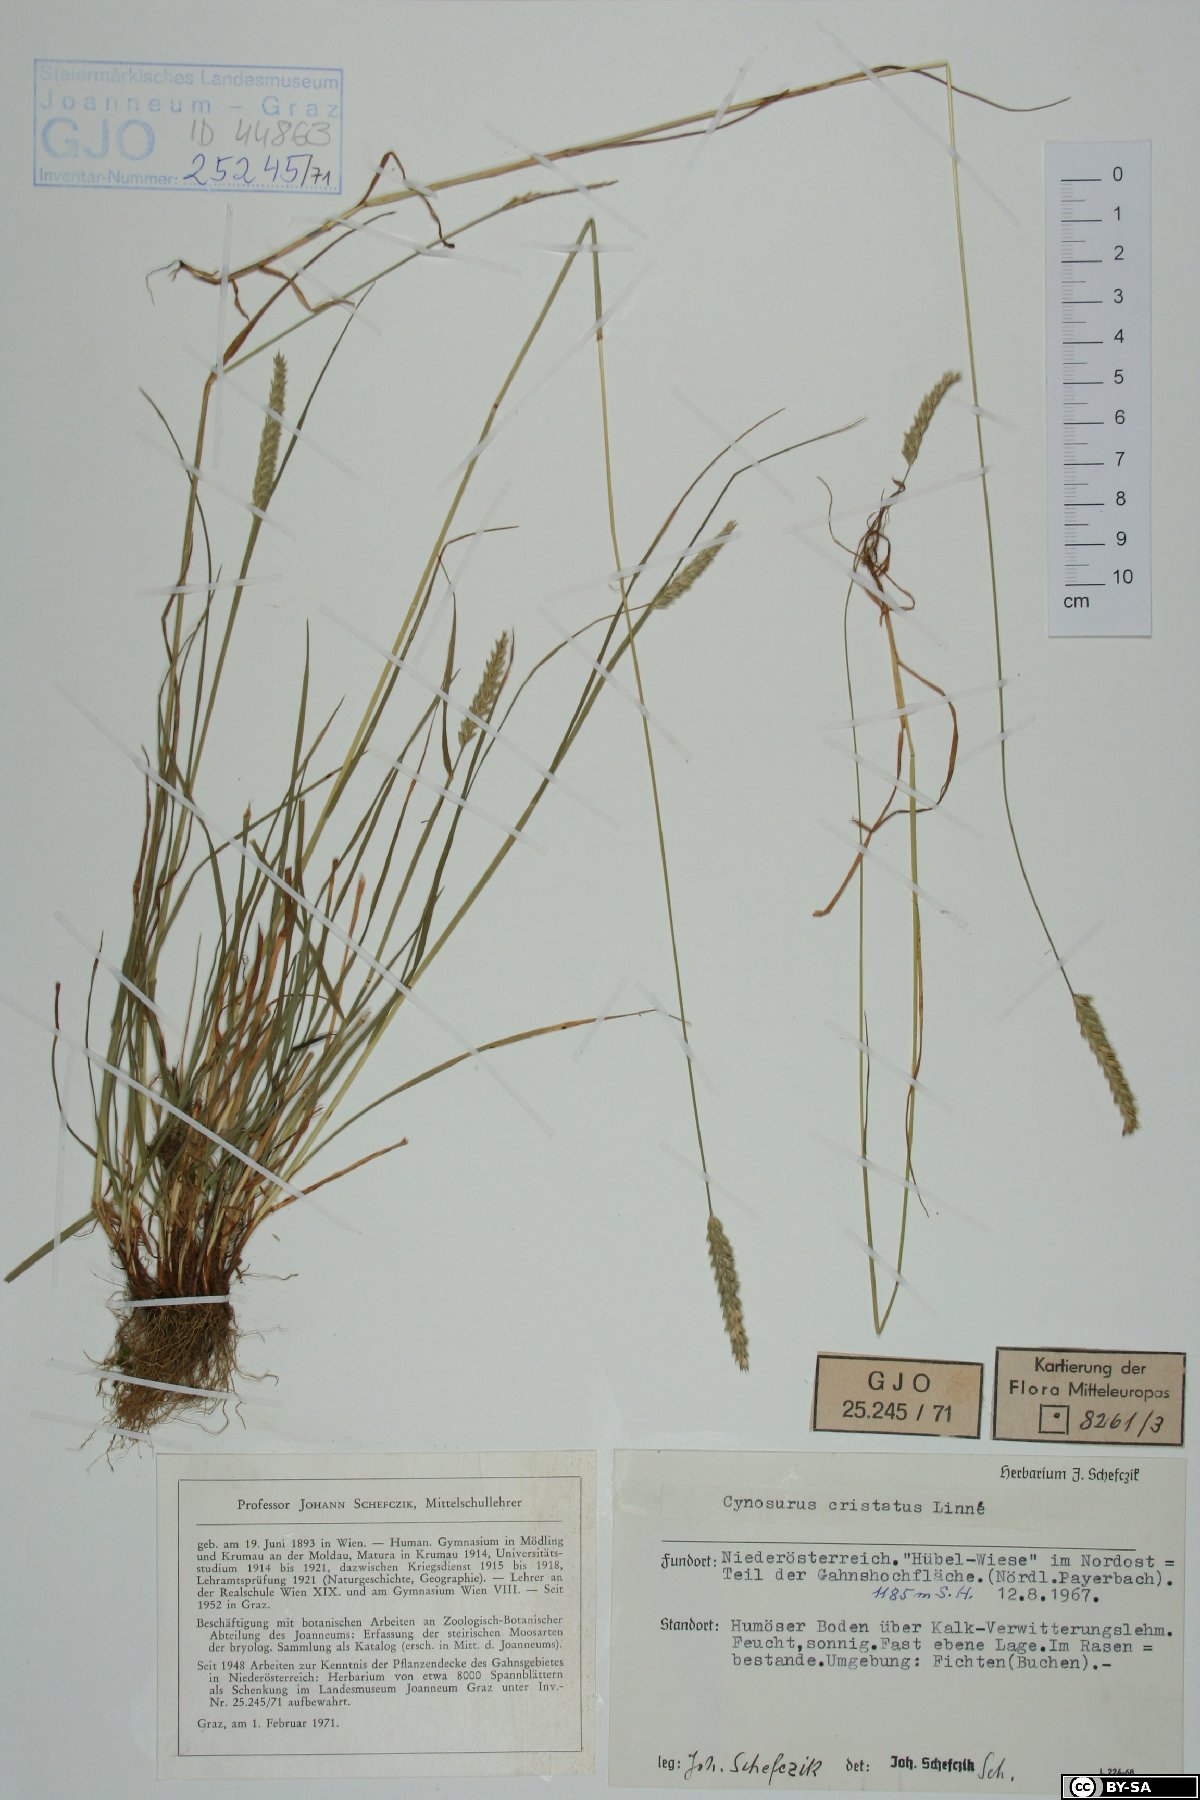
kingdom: Plantae
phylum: Tracheophyta
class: Liliopsida
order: Poales
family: Poaceae
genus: Cynosurus
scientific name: Cynosurus cristatus
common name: Crested dog's-tail
